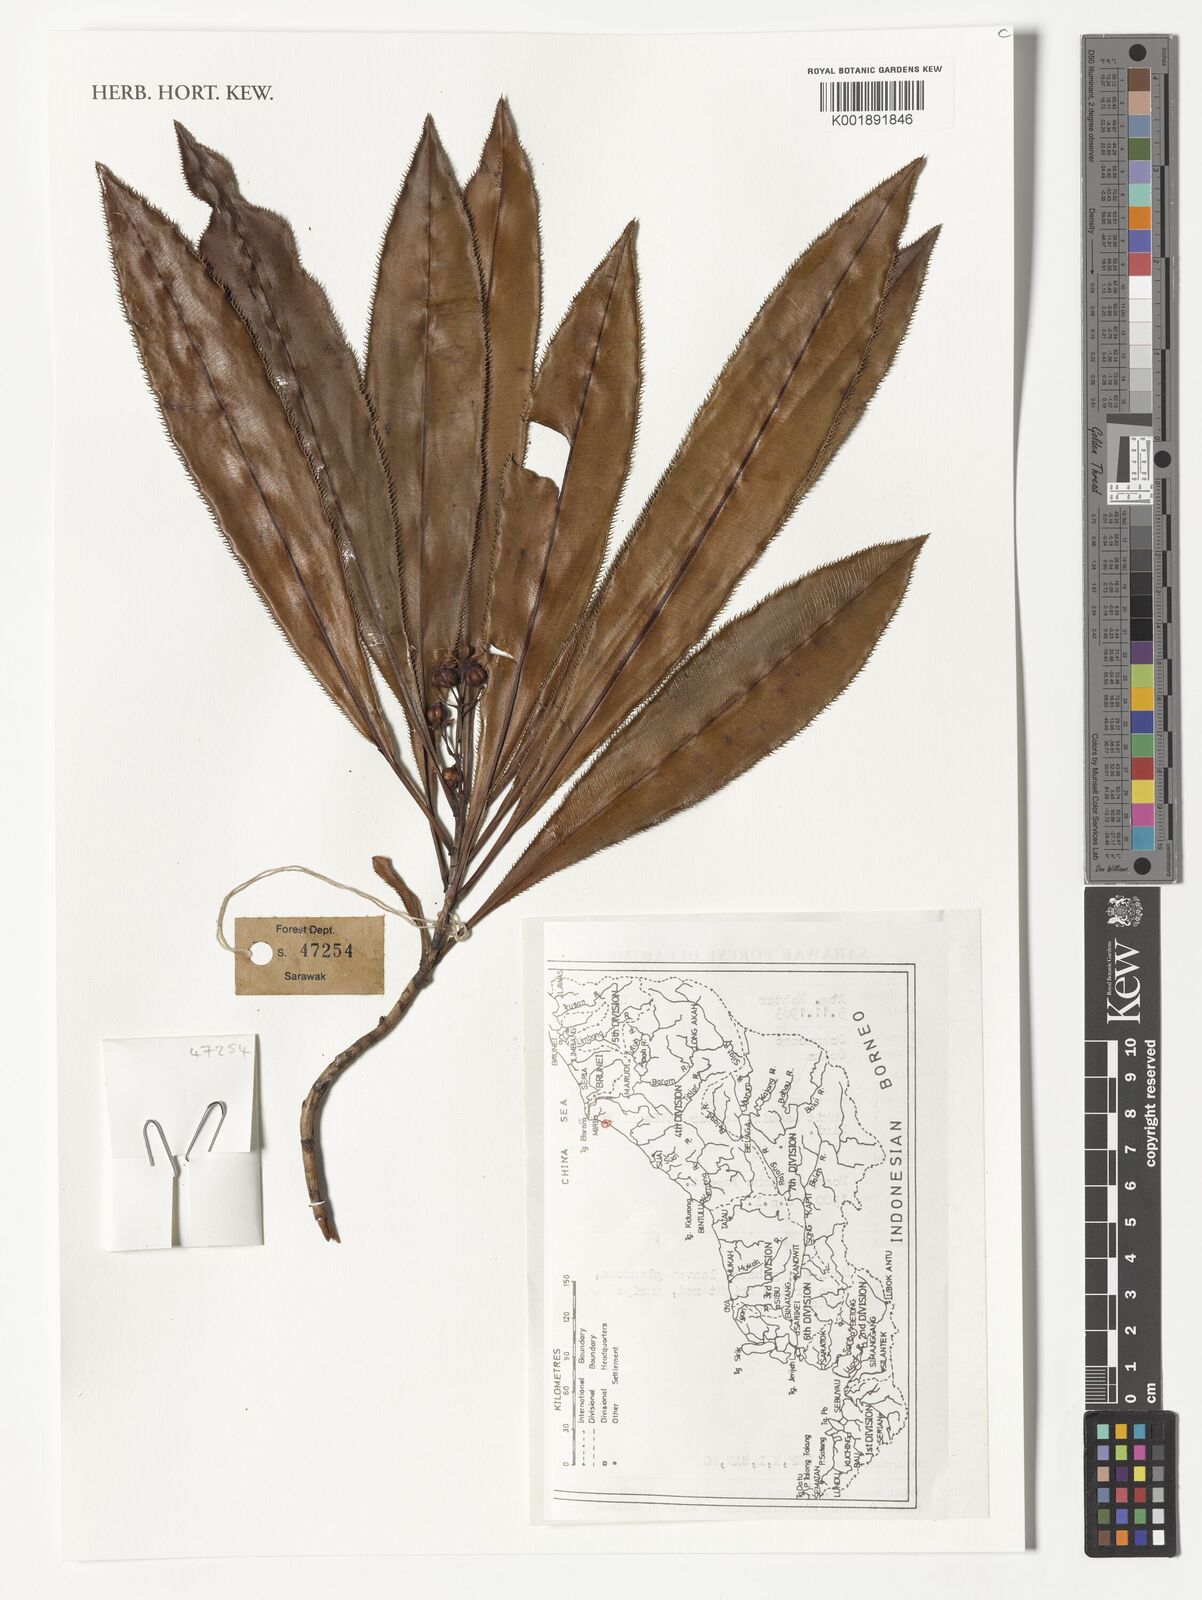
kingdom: Plantae
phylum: Tracheophyta
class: Magnoliopsida
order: Malpighiales
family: Ochnaceae
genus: Ochna
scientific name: Ochna
